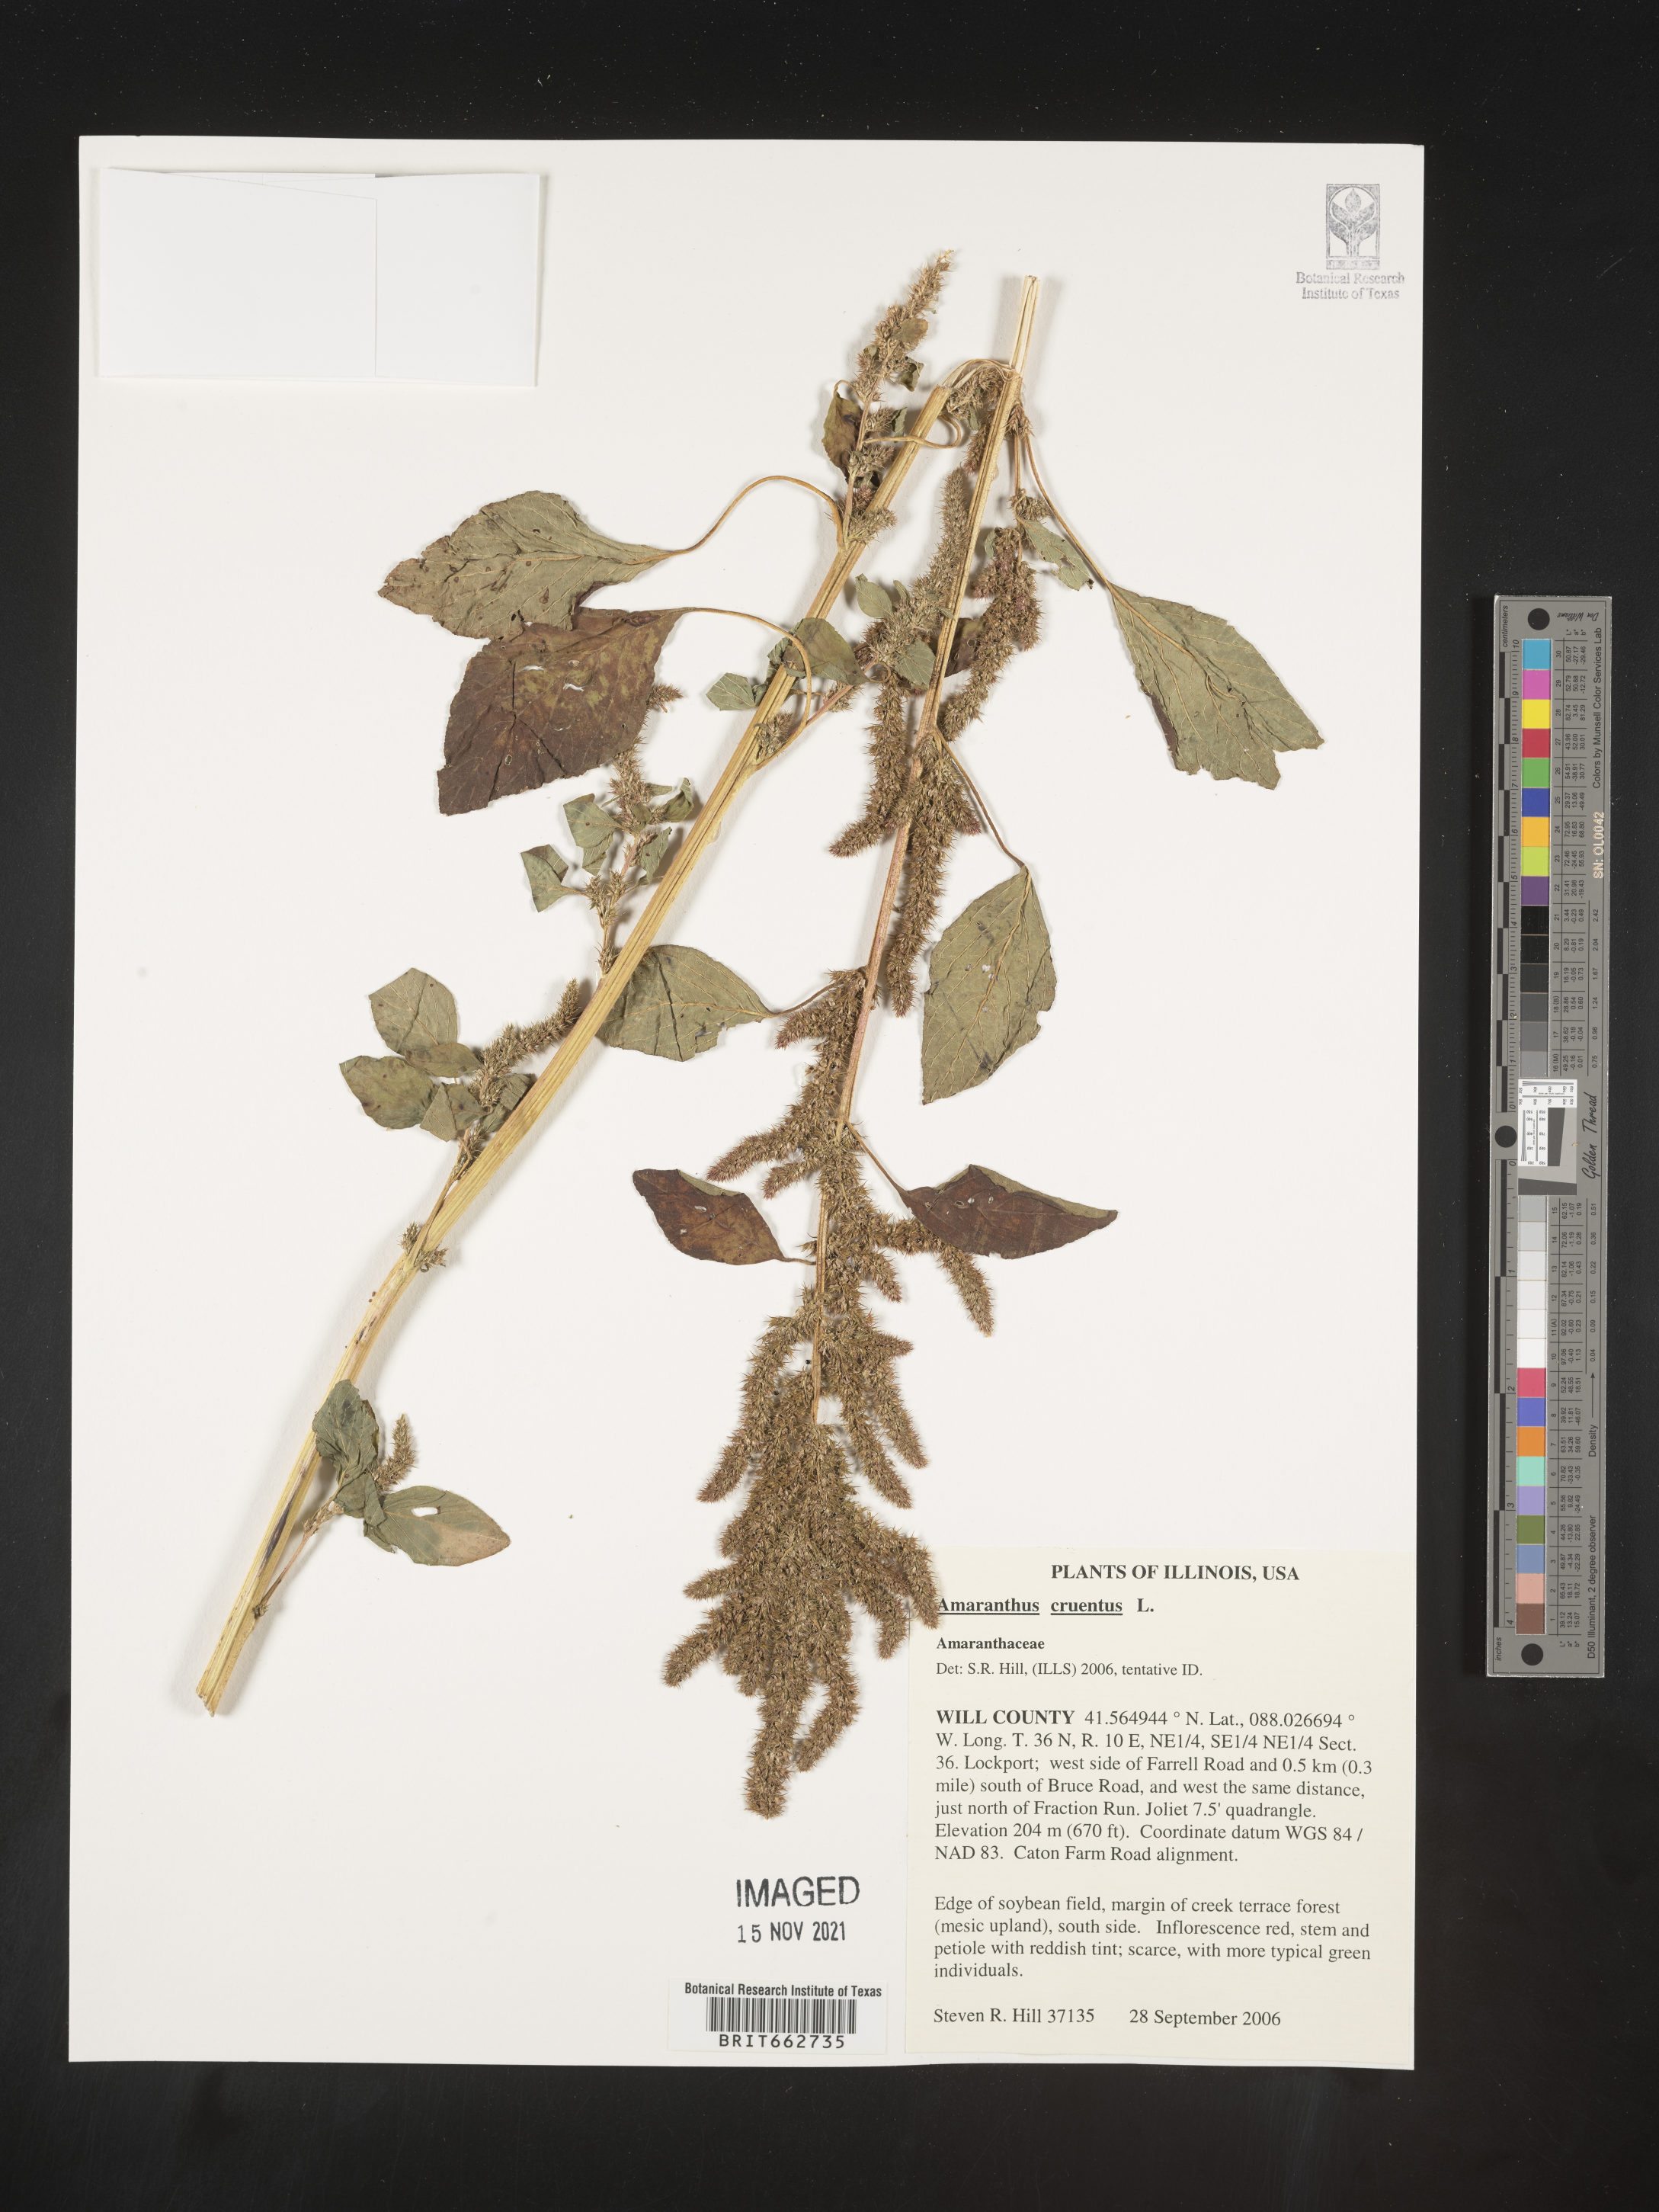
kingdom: Plantae
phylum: Tracheophyta
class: Magnoliopsida
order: Caryophyllales
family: Amaranthaceae
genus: Amaranthus
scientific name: Amaranthus
